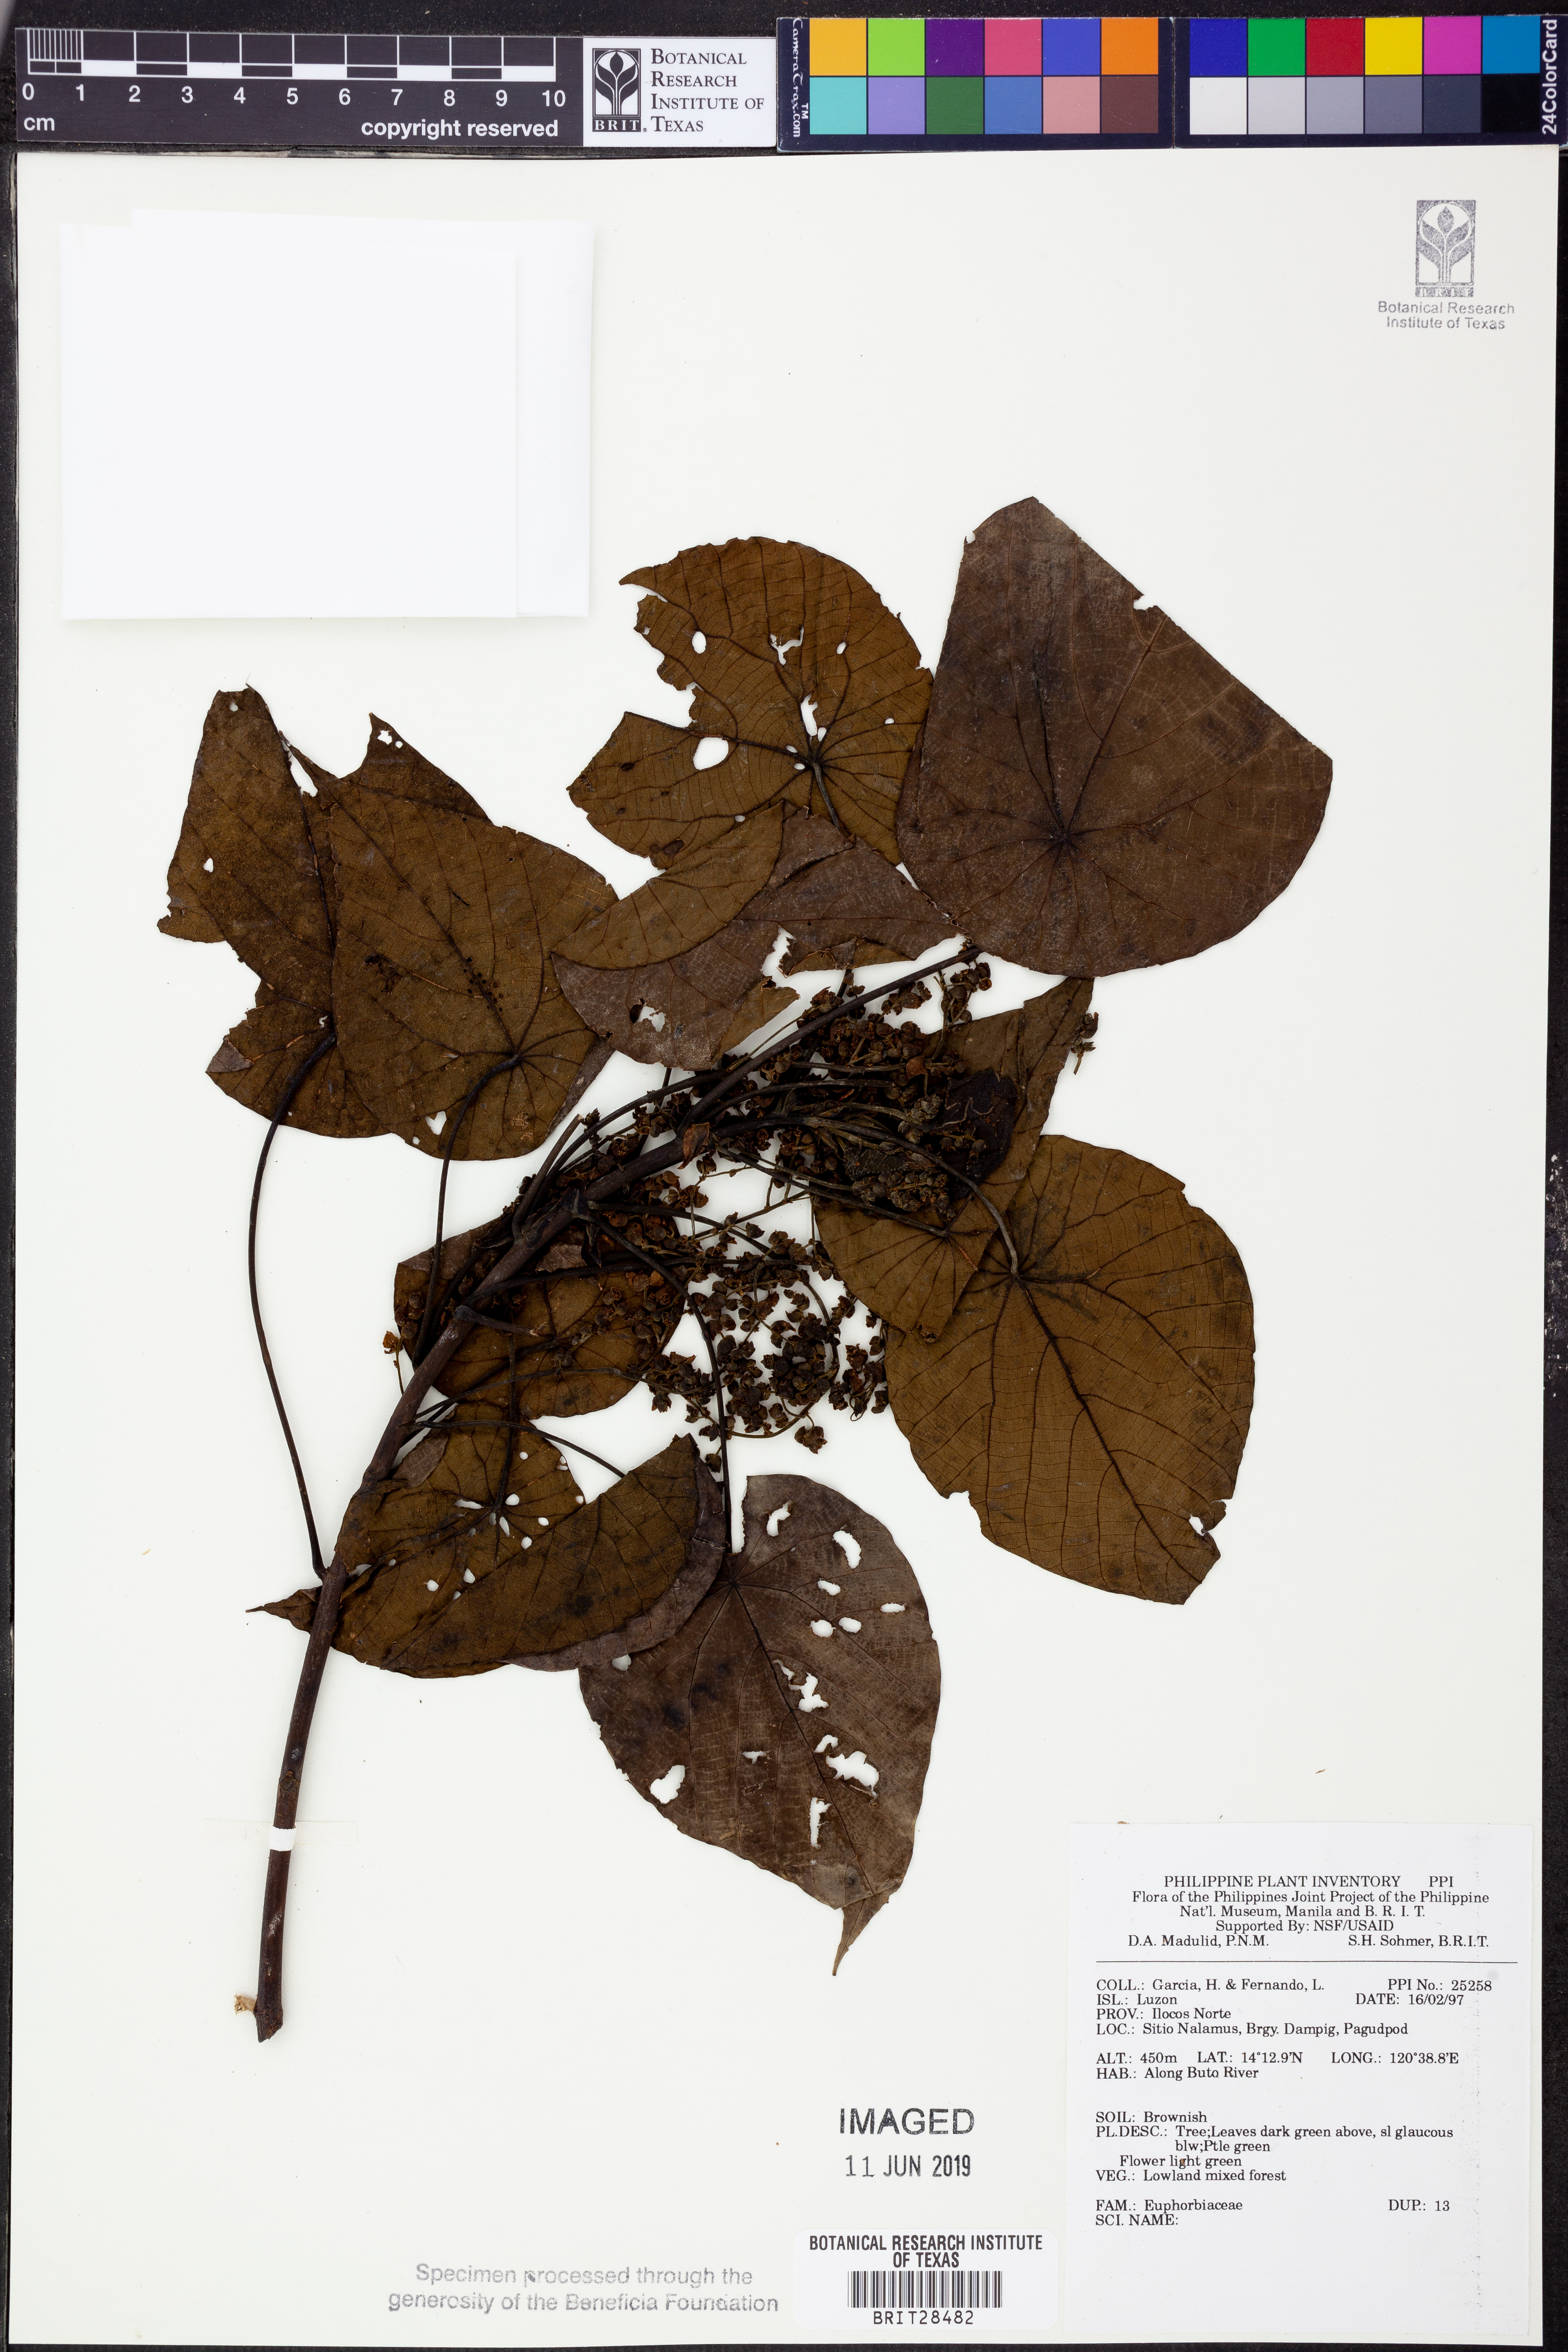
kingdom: Plantae
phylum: Tracheophyta
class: Magnoliopsida
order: Malpighiales
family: Euphorbiaceae
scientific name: Euphorbiaceae
